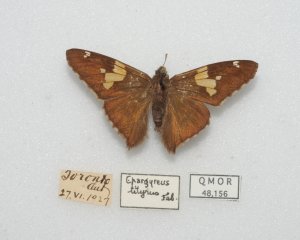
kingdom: Animalia
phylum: Arthropoda
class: Insecta
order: Lepidoptera
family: Hesperiidae
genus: Epargyreus
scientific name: Epargyreus clarus
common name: Silver-spotted Skipper
